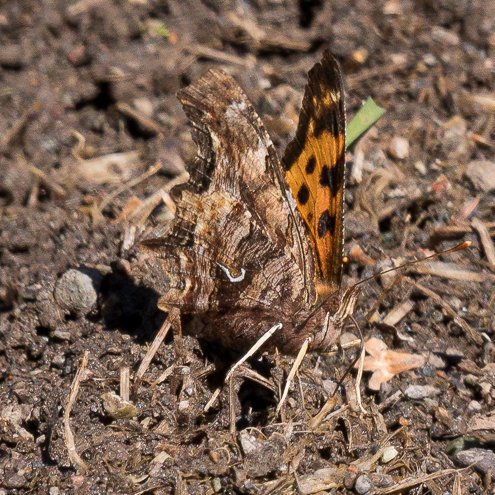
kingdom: Animalia
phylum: Arthropoda
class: Insecta
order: Lepidoptera
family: Nymphalidae
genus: Polygonia
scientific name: Polygonia satyrus
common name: Satyr Comma
